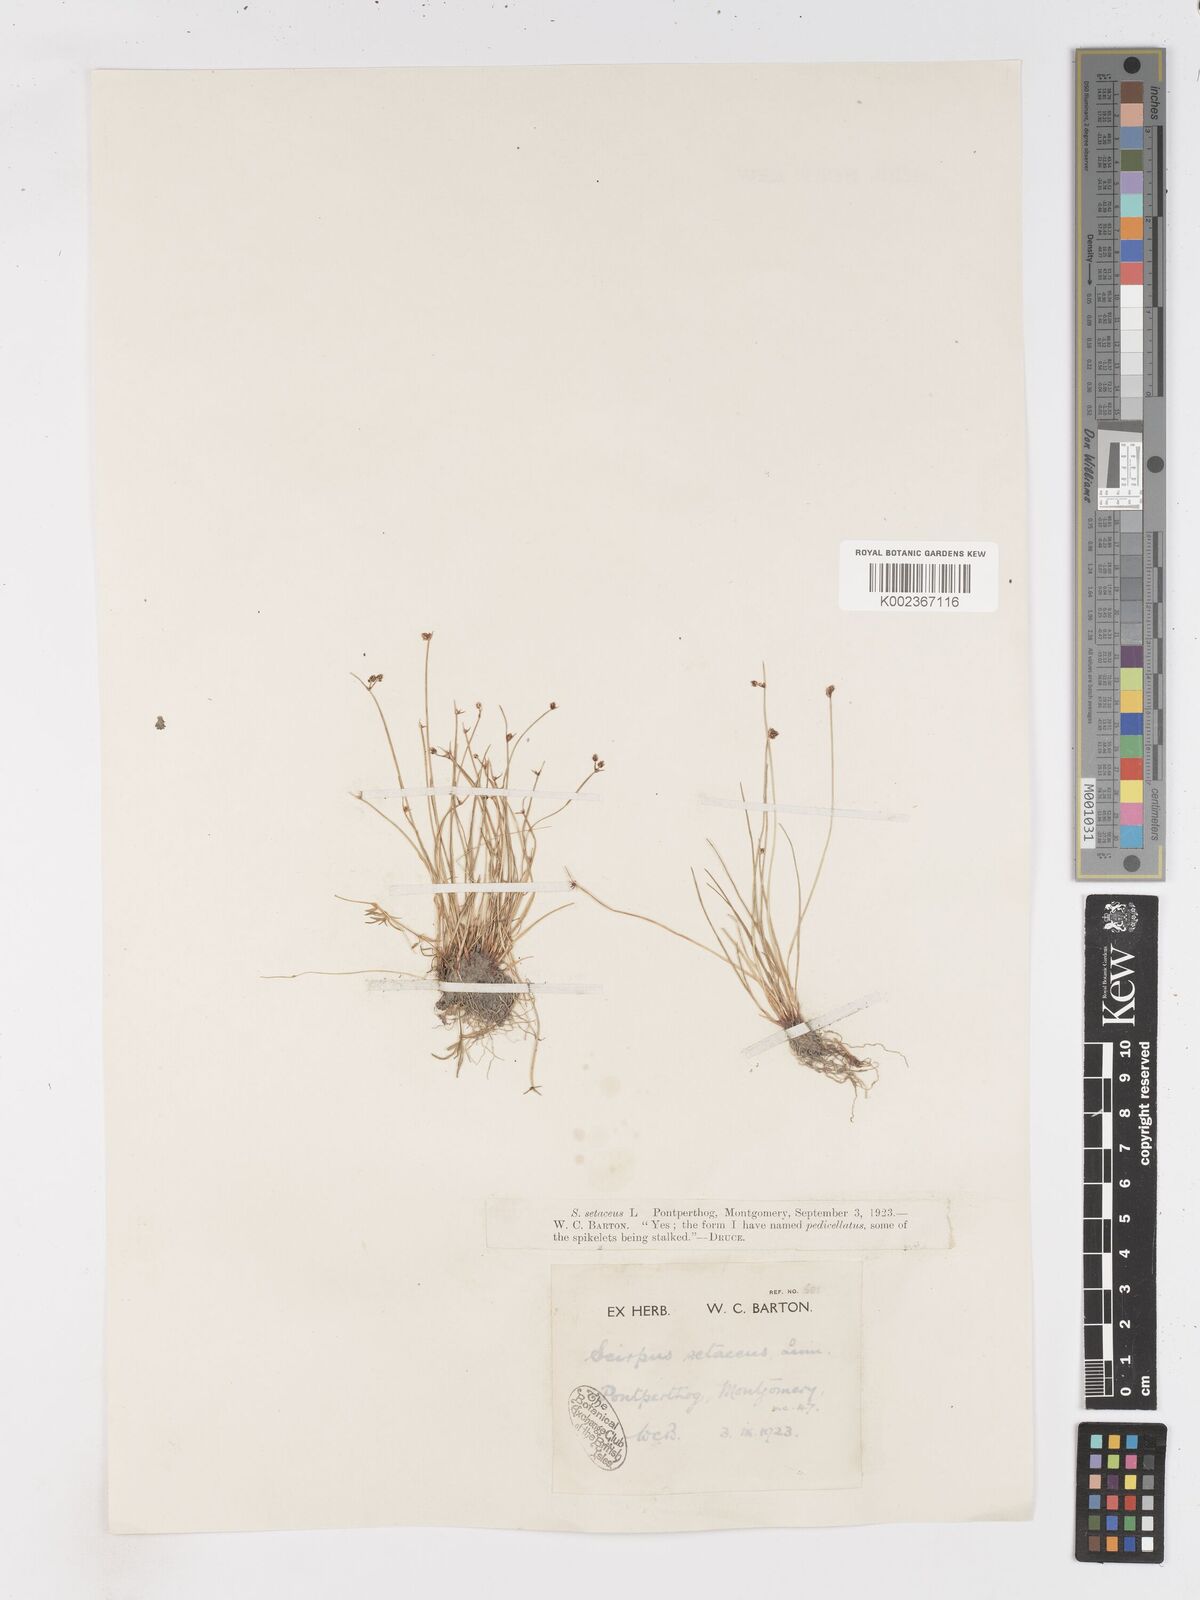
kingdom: Plantae
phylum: Tracheophyta
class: Liliopsida
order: Poales
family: Cyperaceae
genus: Isolepis
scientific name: Isolepis setacea
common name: Bristle club-rush
